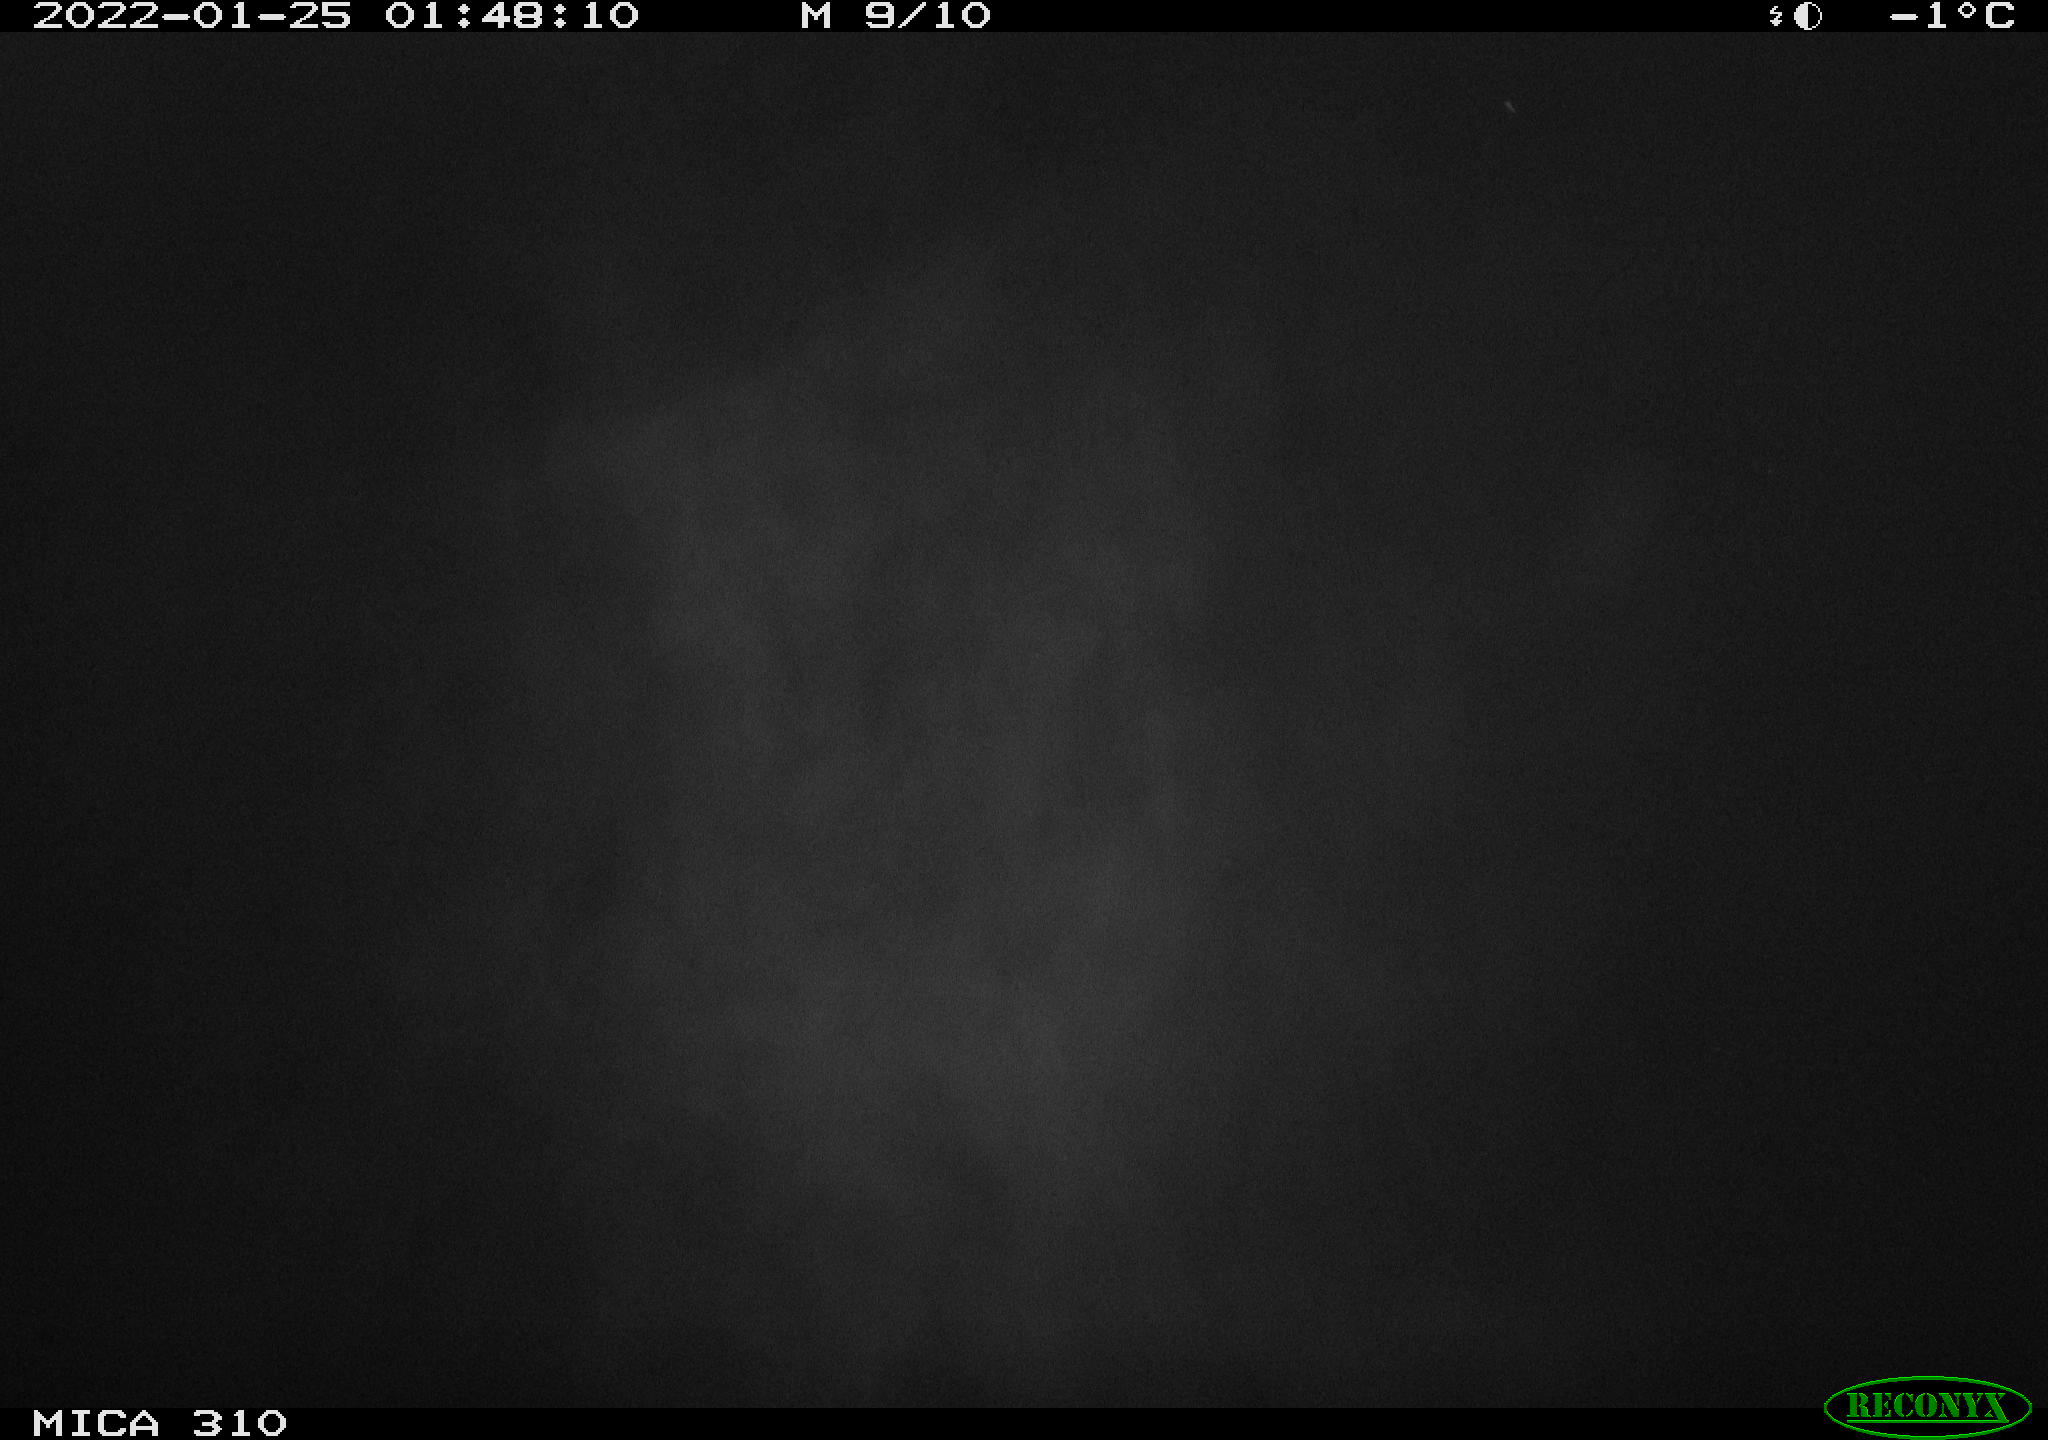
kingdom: Animalia
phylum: Chordata
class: Aves
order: Anseriformes
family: Anatidae
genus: Anas
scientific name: Anas
